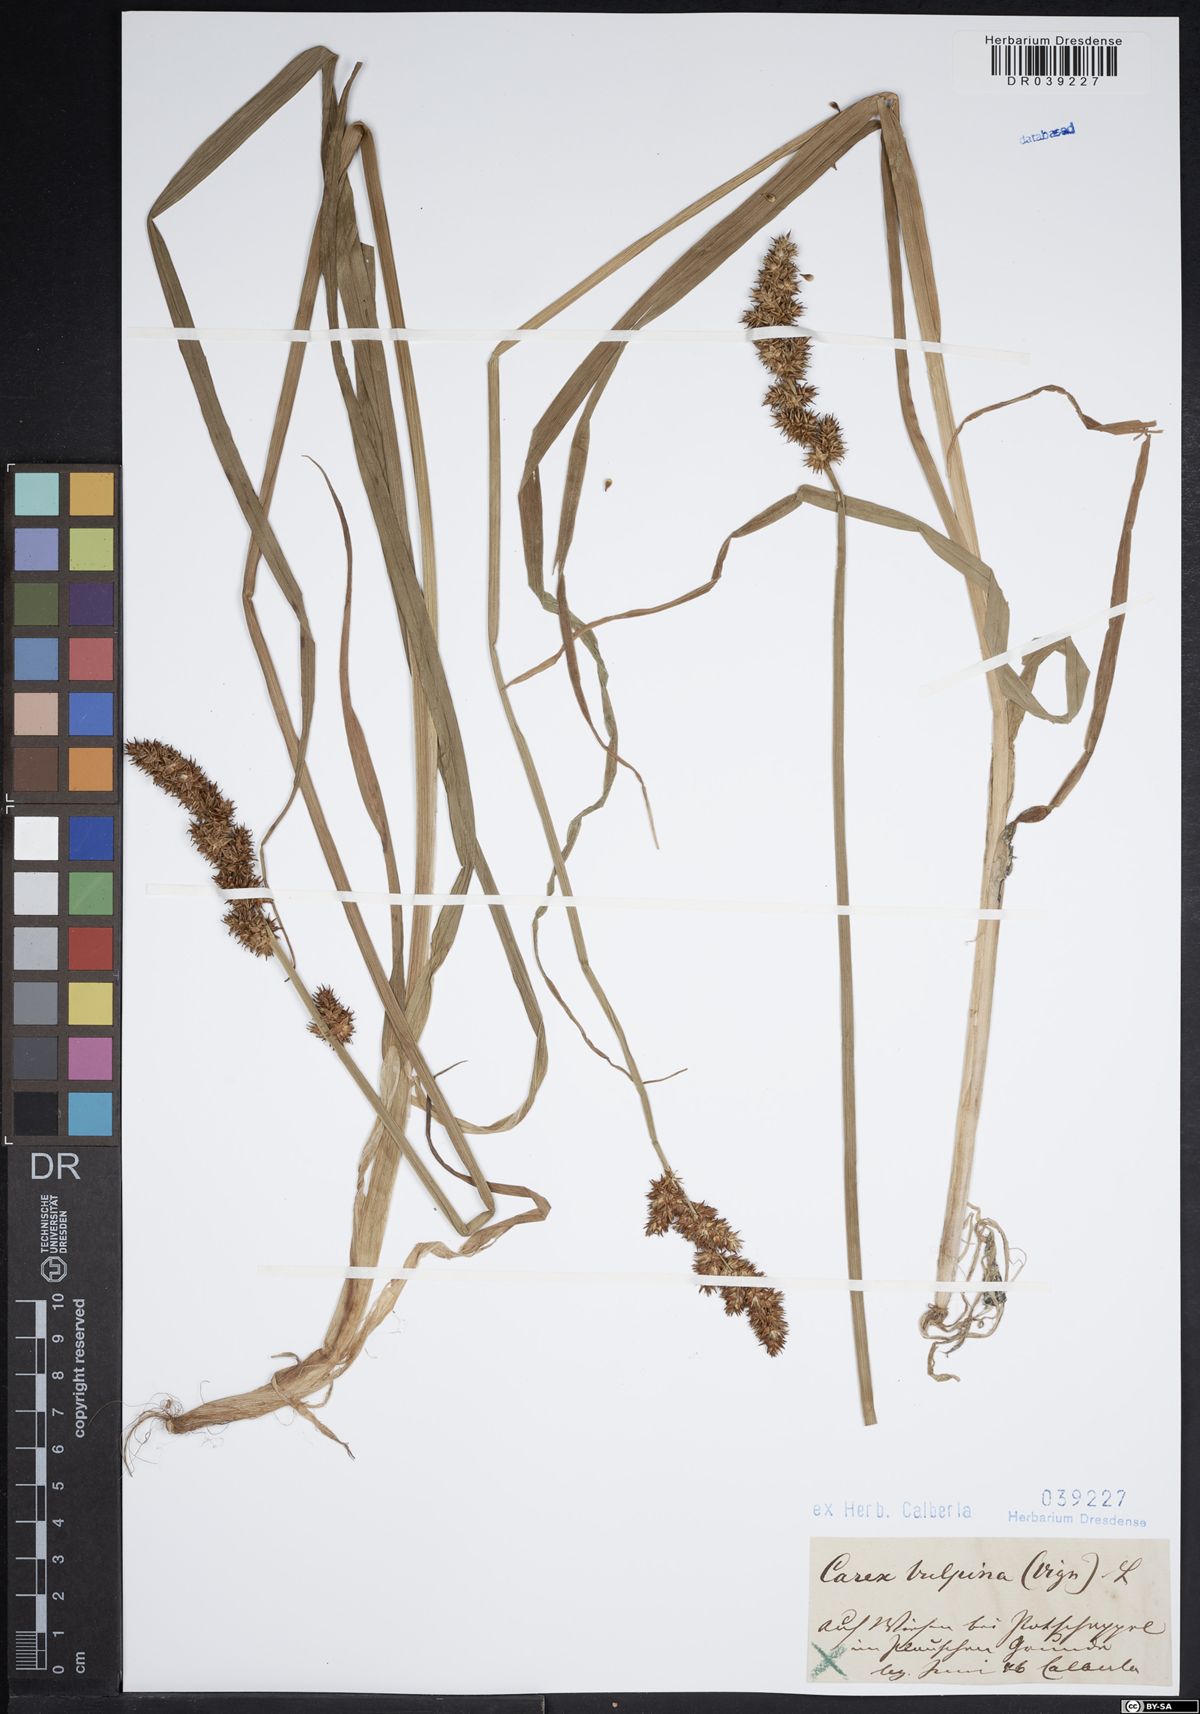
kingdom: Plantae
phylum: Tracheophyta
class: Liliopsida
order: Poales
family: Cyperaceae
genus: Carex
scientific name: Carex vulpina
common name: True fox-sedge
